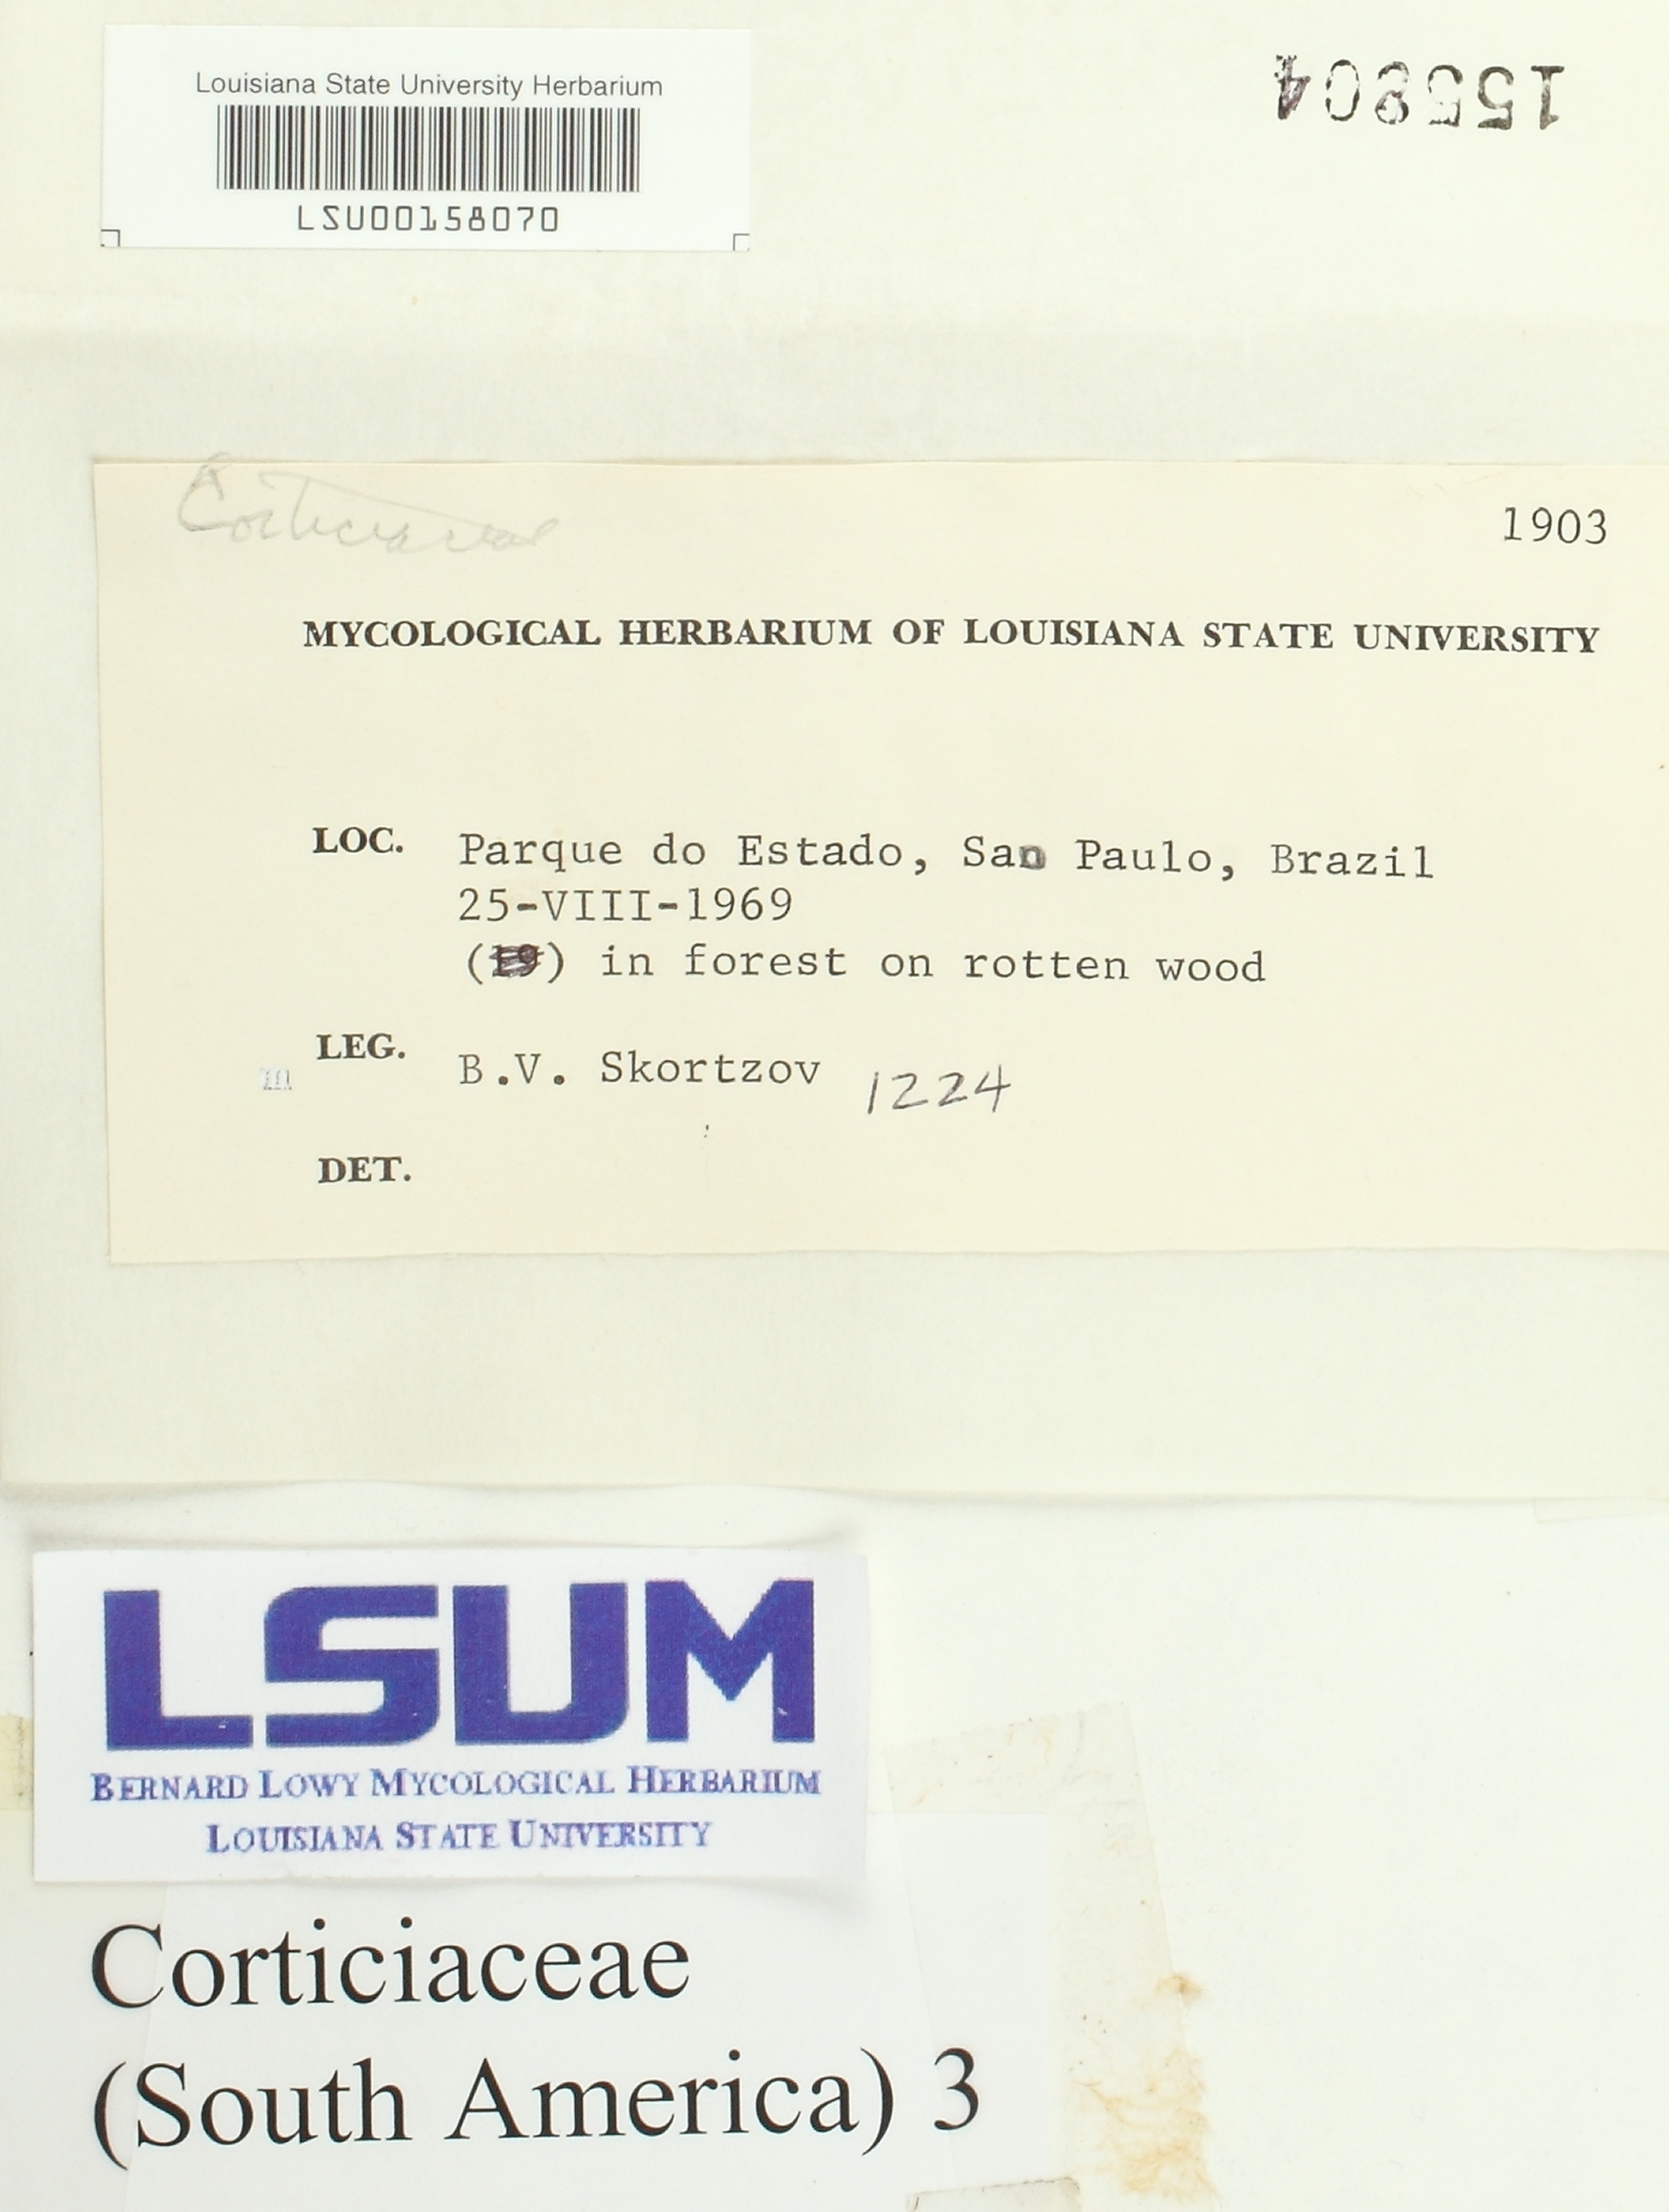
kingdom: Fungi
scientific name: Fungi
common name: Fungi
